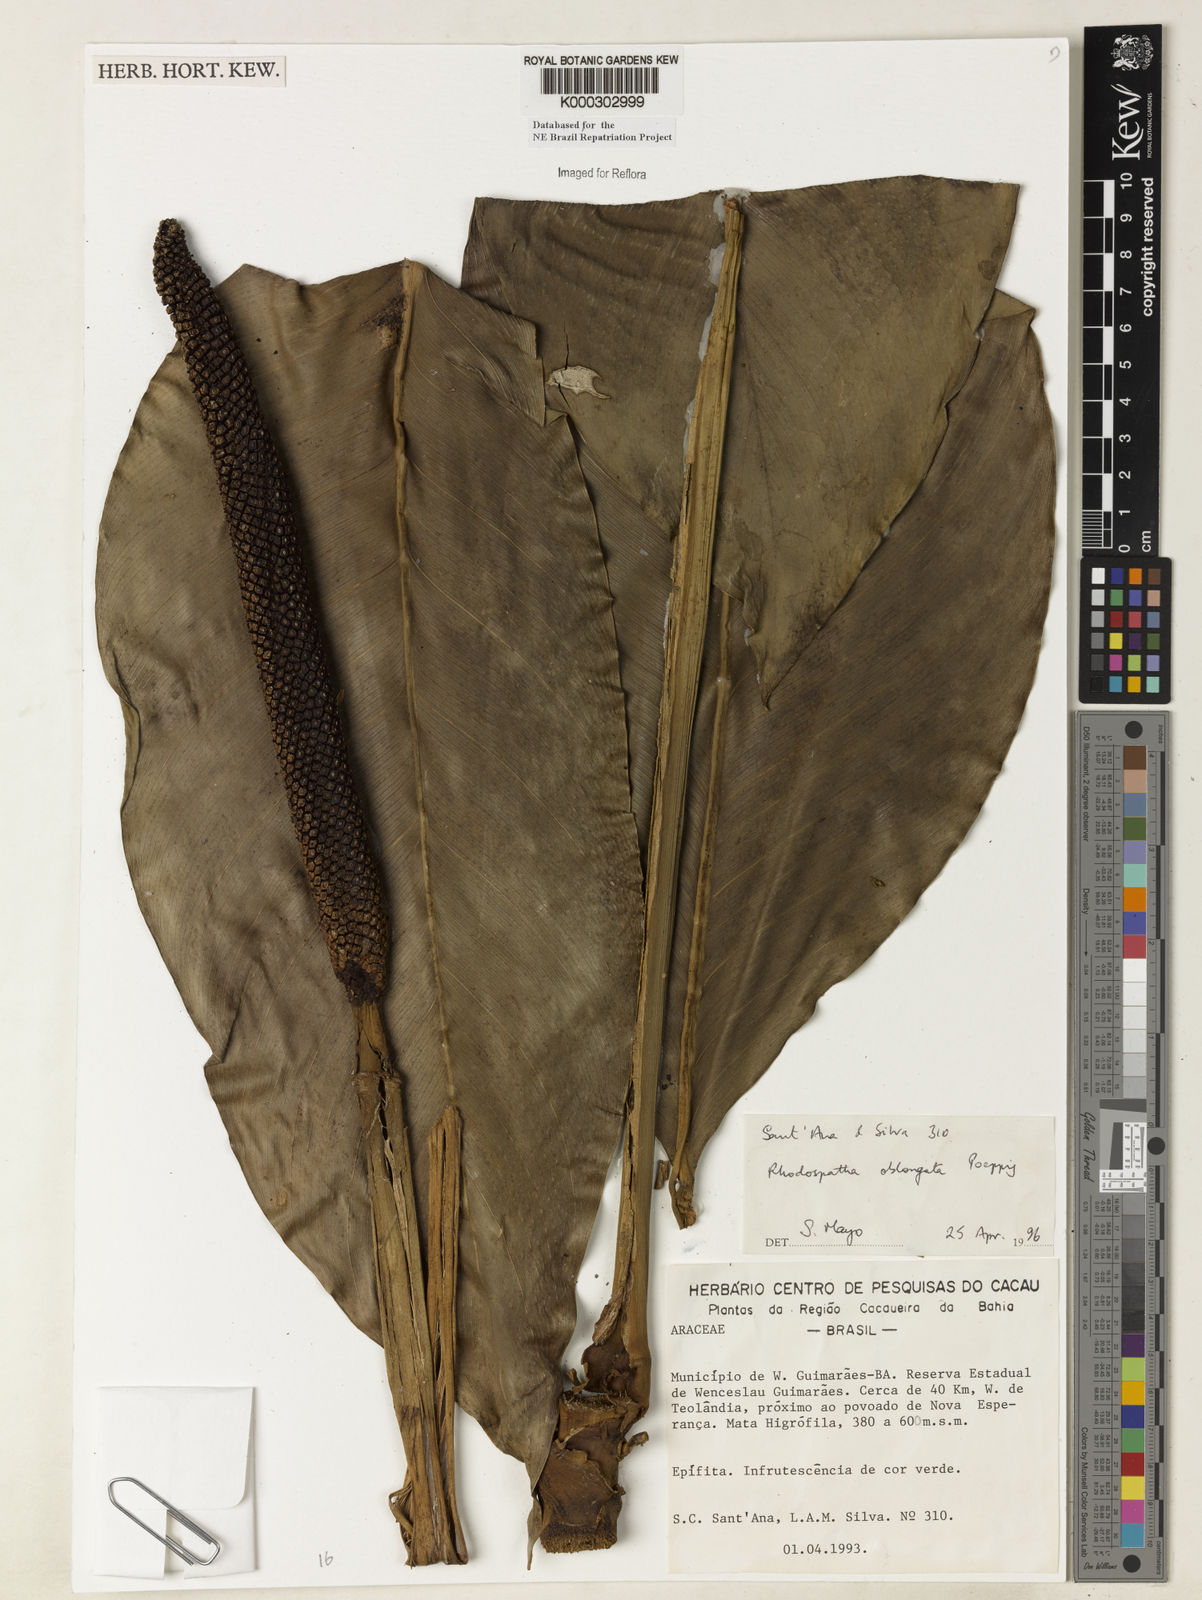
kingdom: Plantae
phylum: Tracheophyta
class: Liliopsida
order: Alismatales
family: Araceae
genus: Rhodospatha
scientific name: Rhodospatha oblongata
